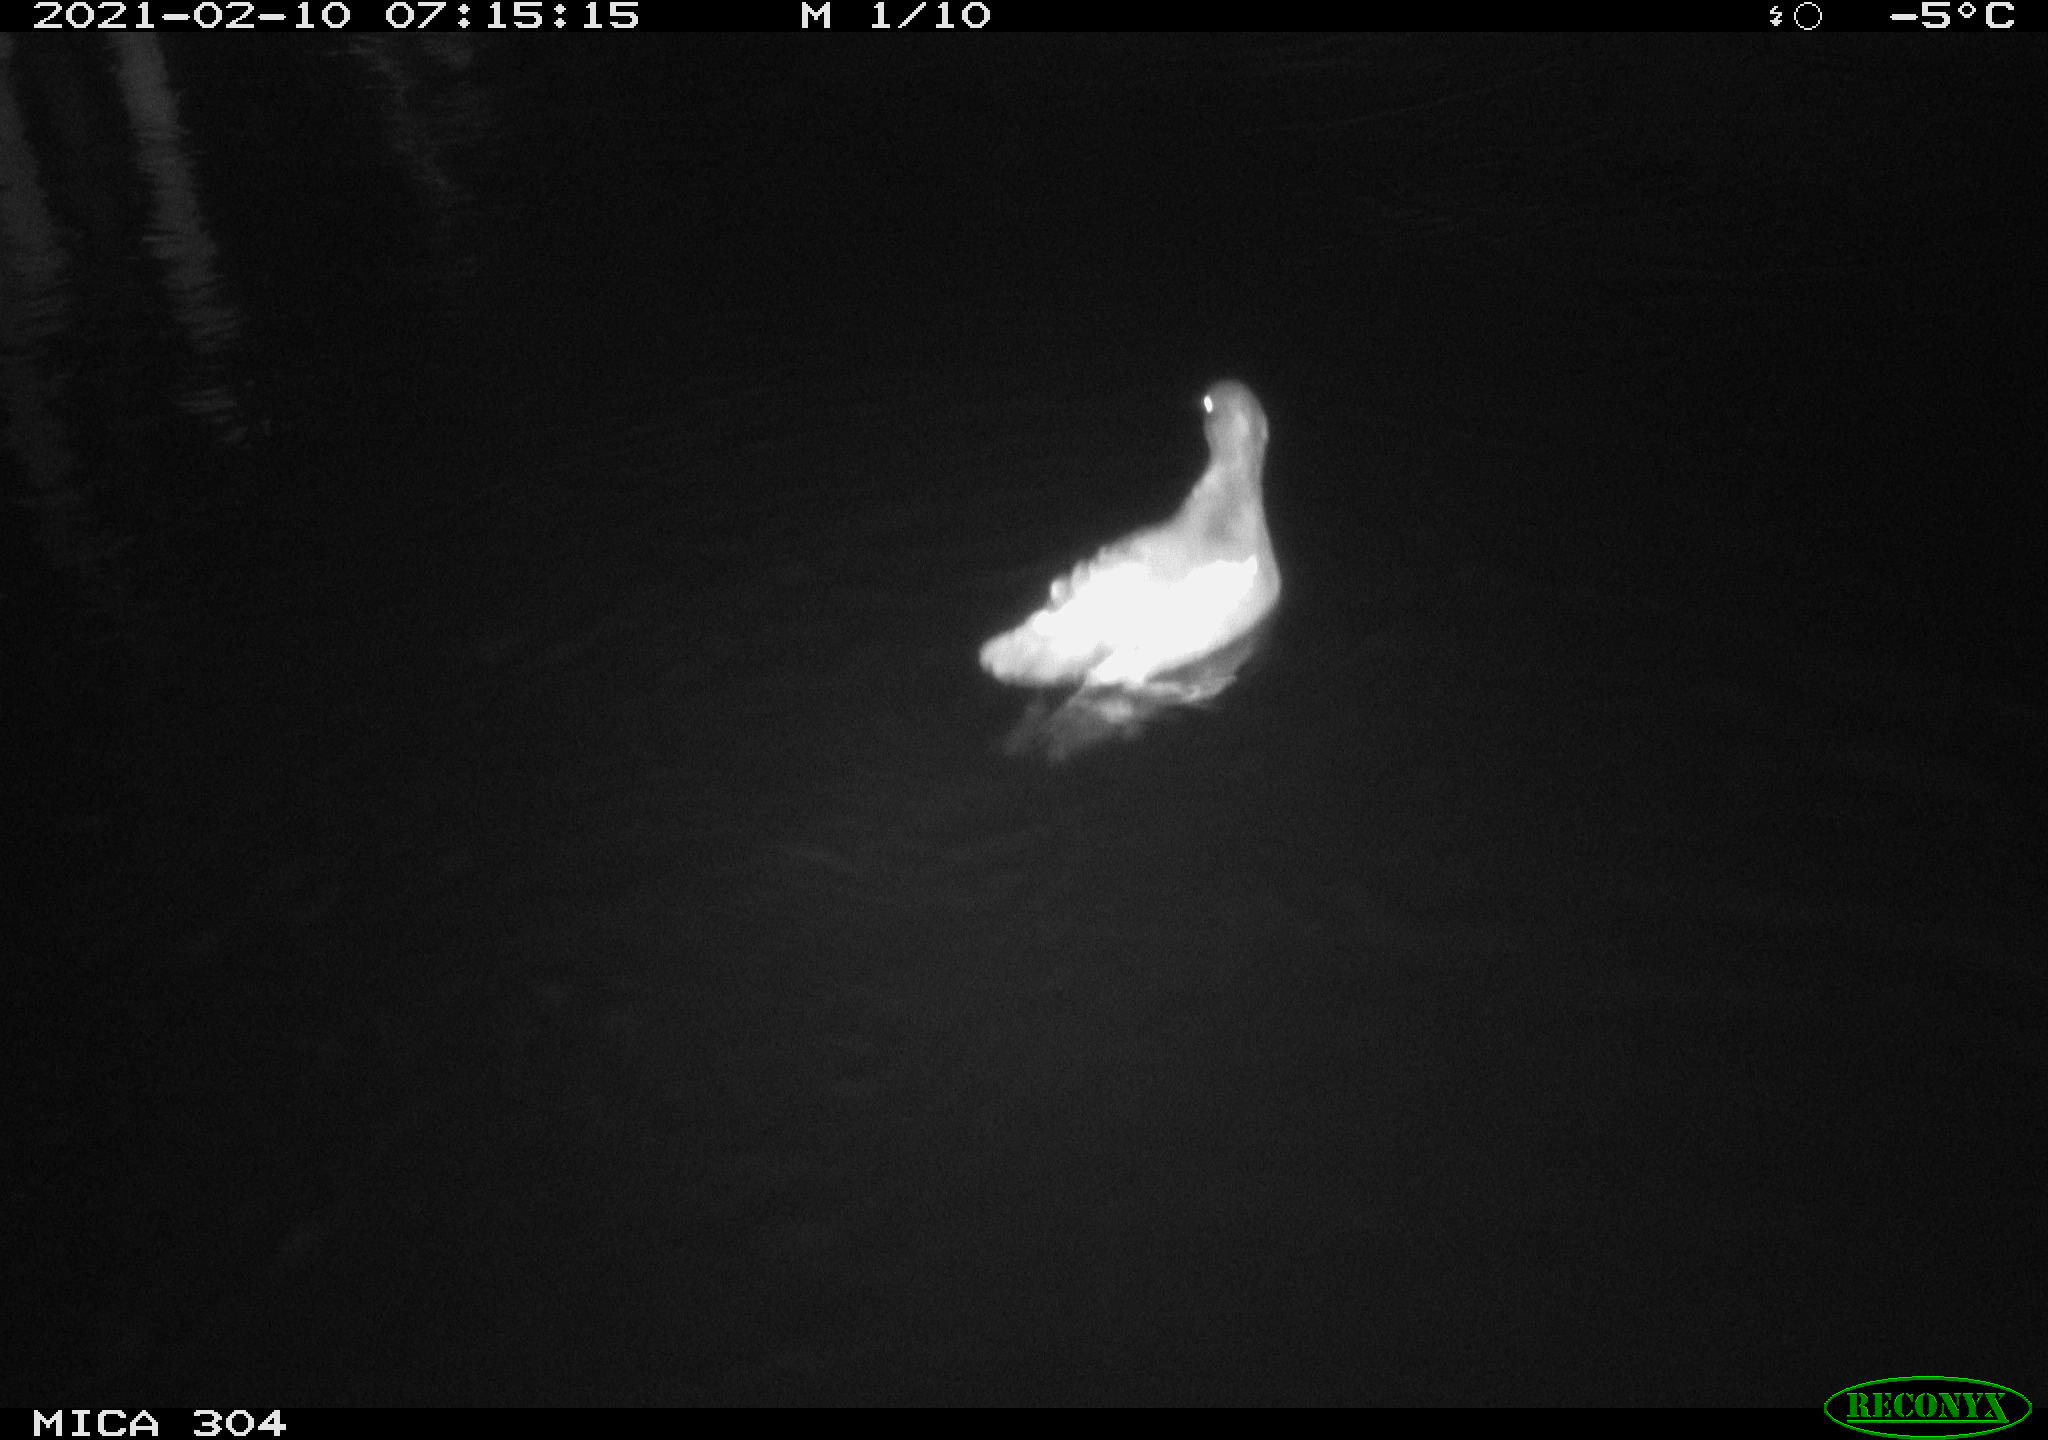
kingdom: Animalia
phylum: Chordata
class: Aves
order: Gruiformes
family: Rallidae
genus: Gallinula
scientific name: Gallinula chloropus
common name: Common moorhen
